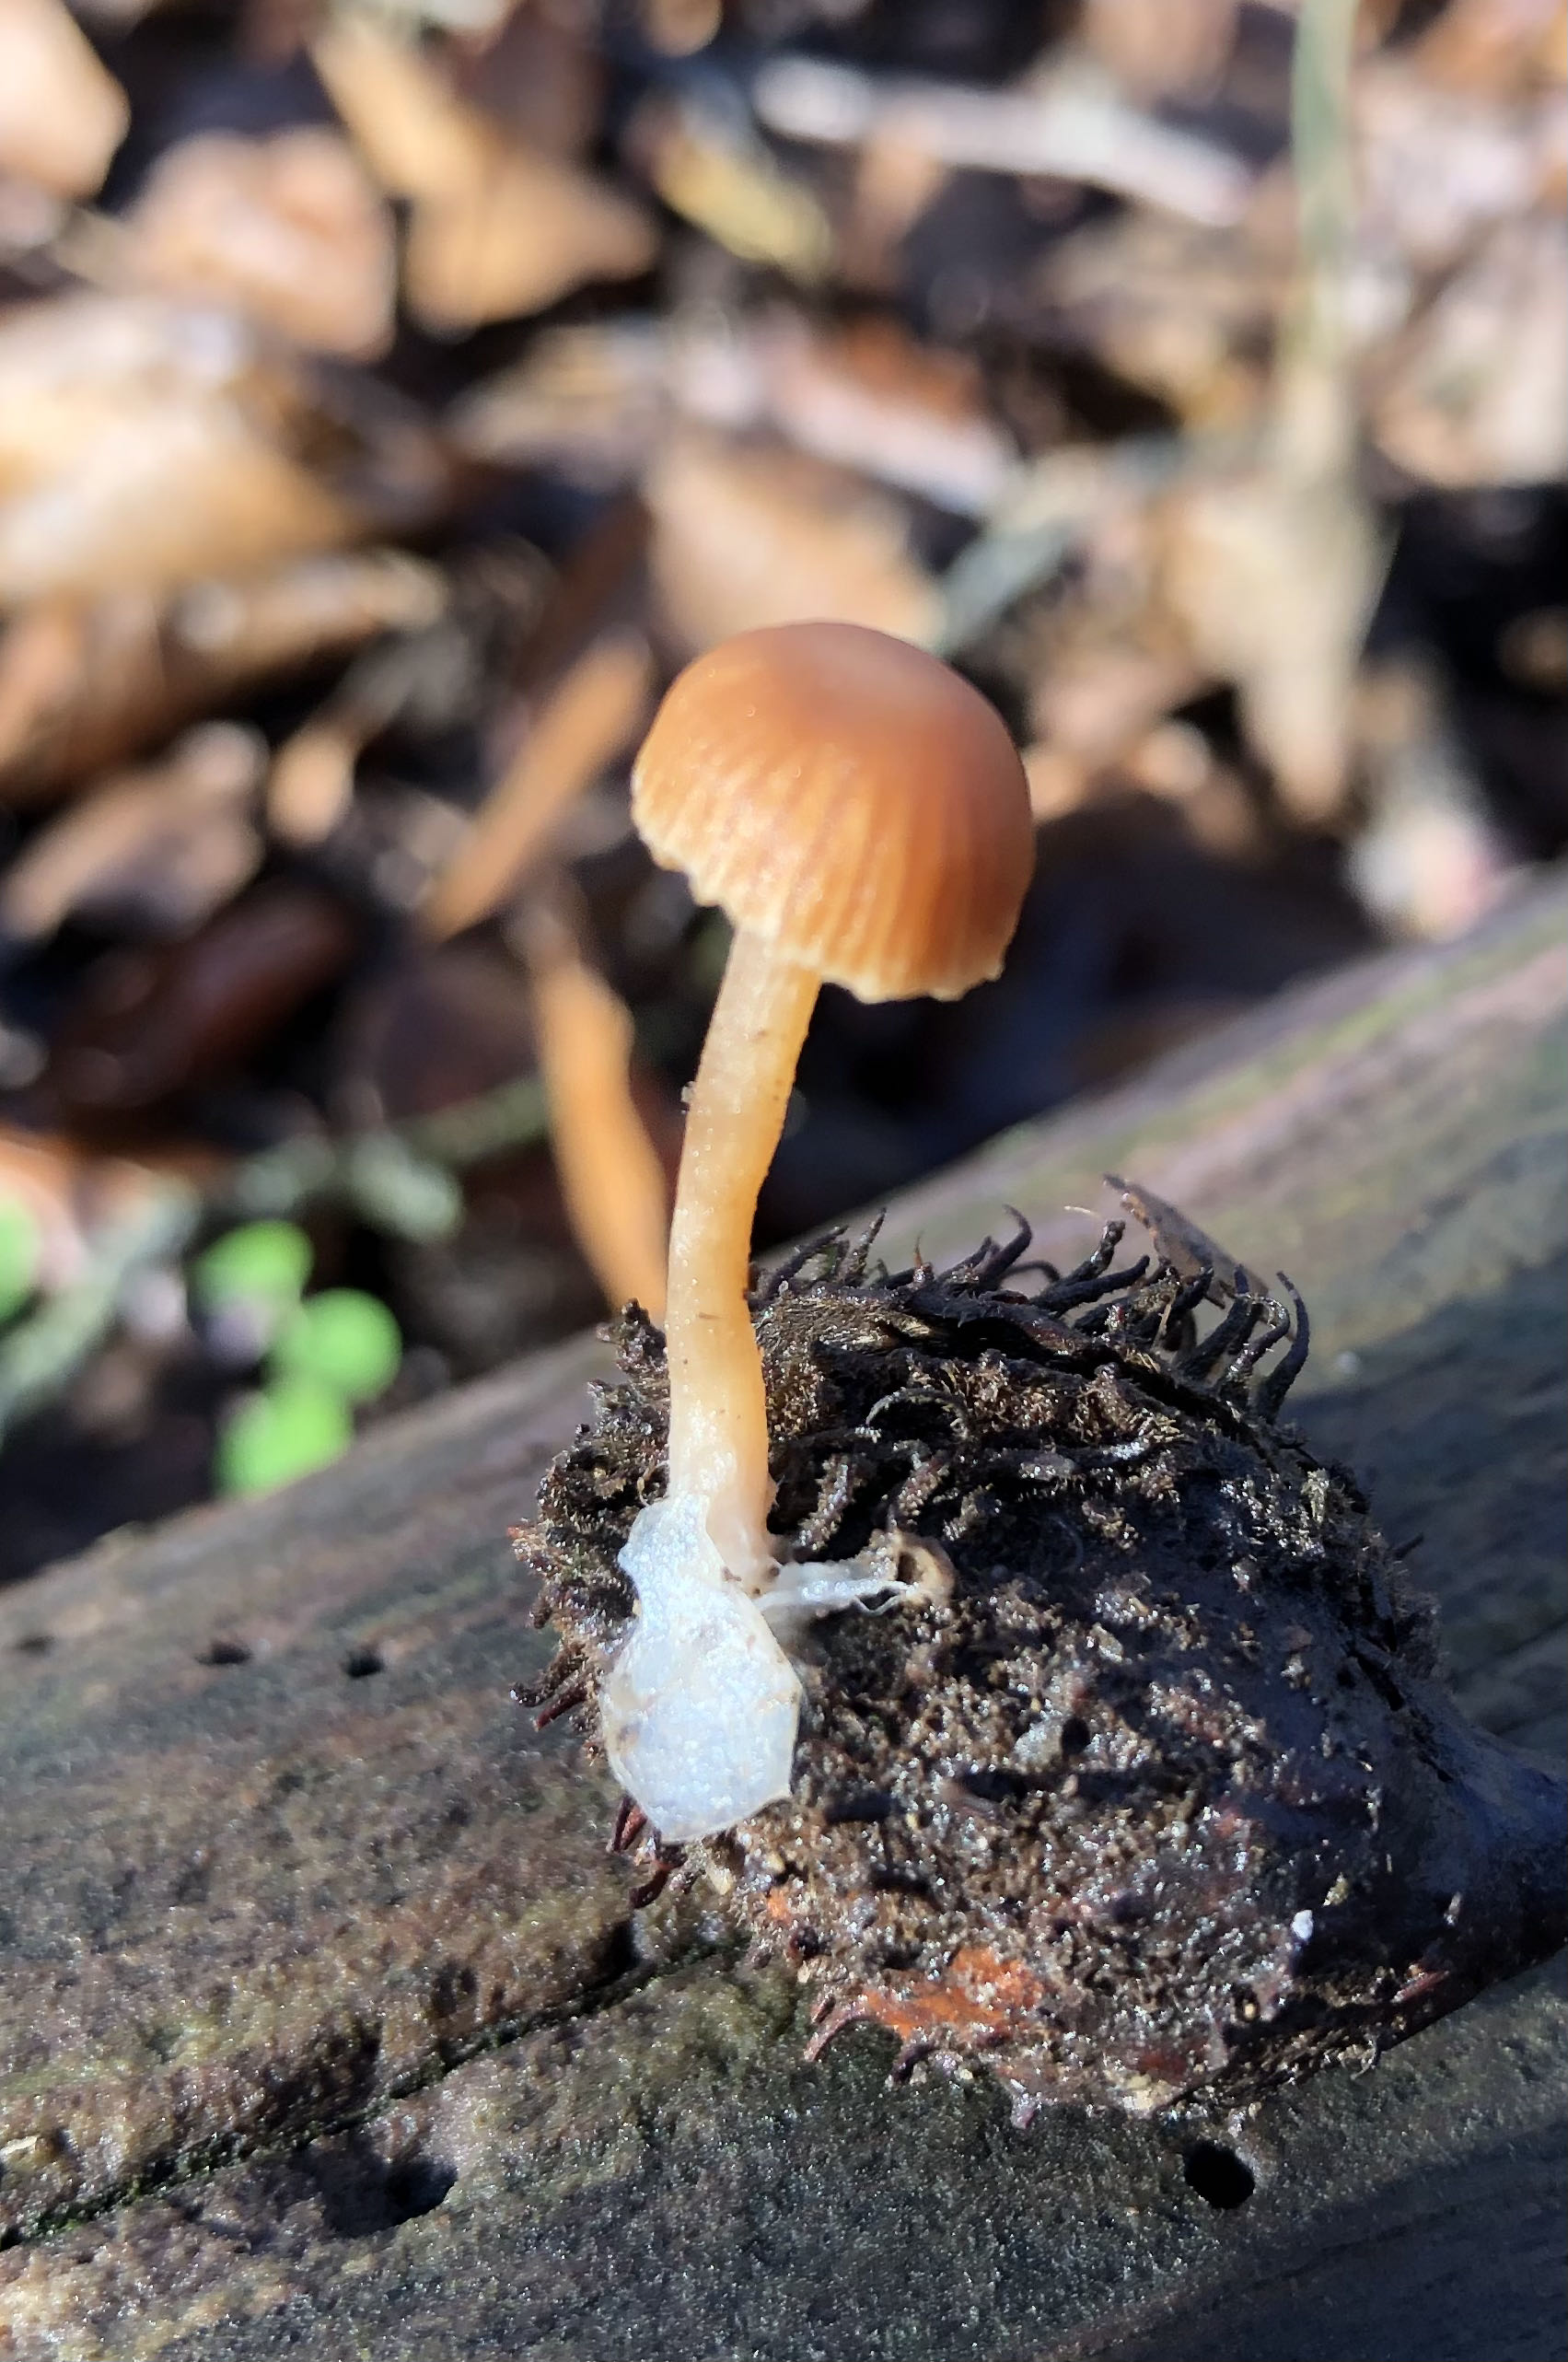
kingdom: Fungi
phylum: Basidiomycota
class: Agaricomycetes
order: Agaricales
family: Tubariaceae
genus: Tubaria
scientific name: Tubaria furfuracea
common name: kliddet fnughat
